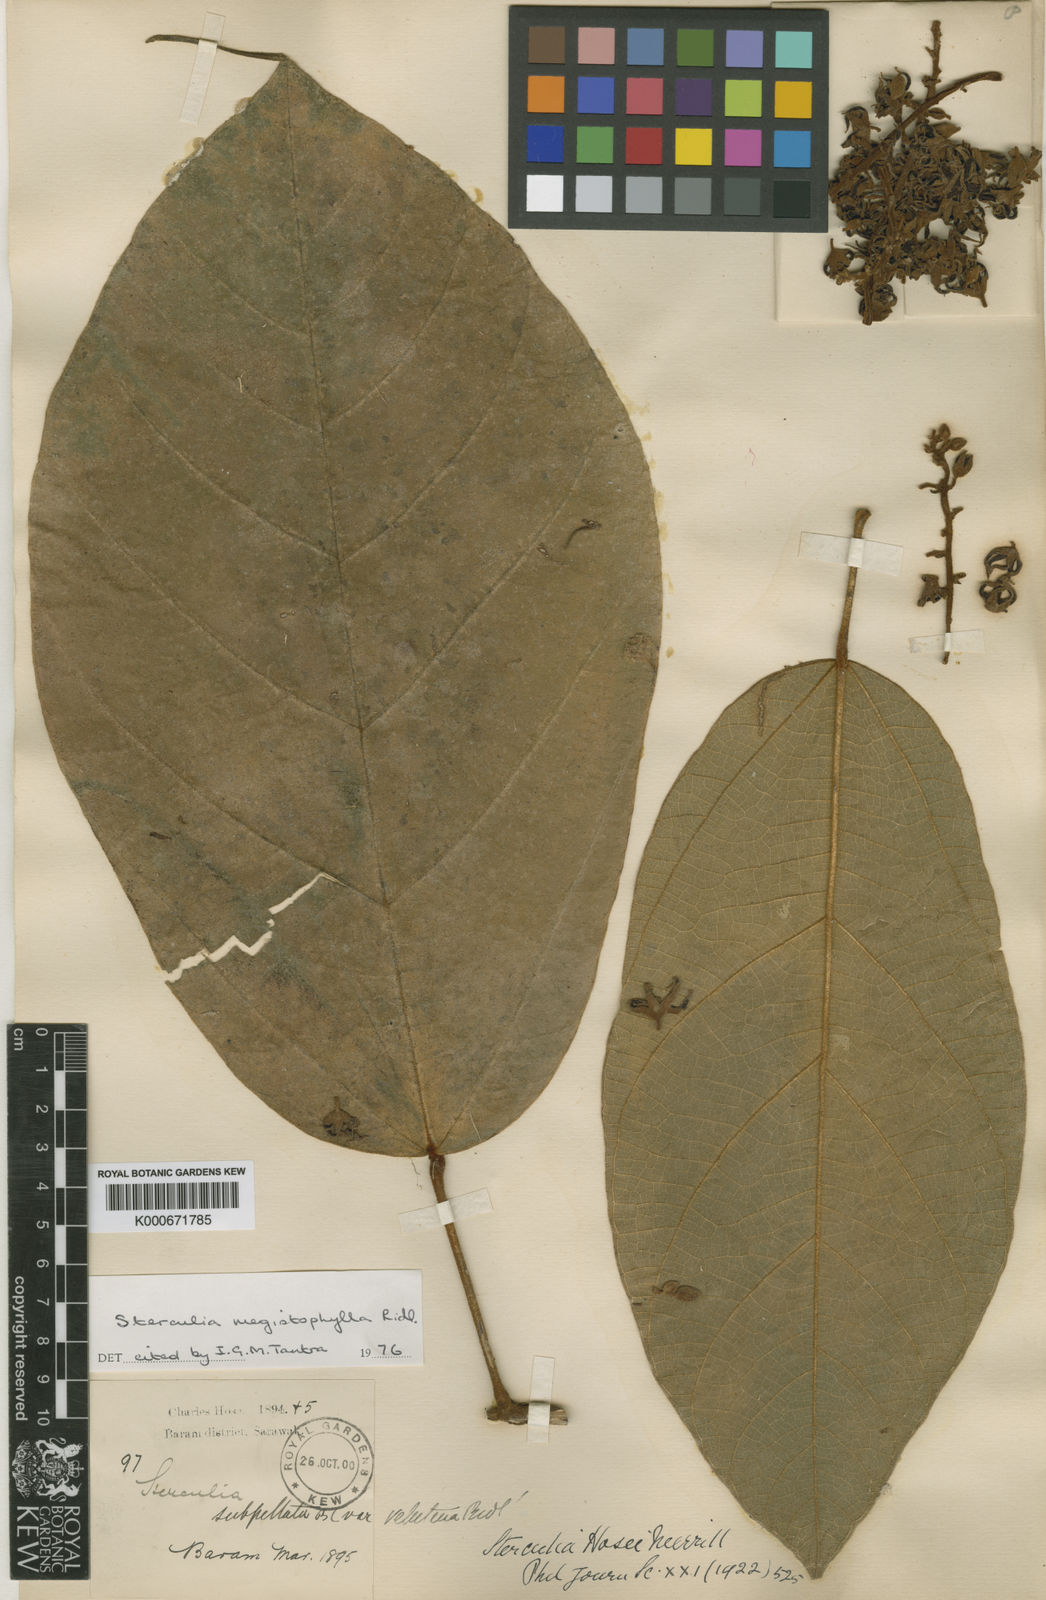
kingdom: Plantae
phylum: Tracheophyta
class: Magnoliopsida
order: Malvales
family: Malvaceae
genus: Sterculia
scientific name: Sterculia megistophylla
